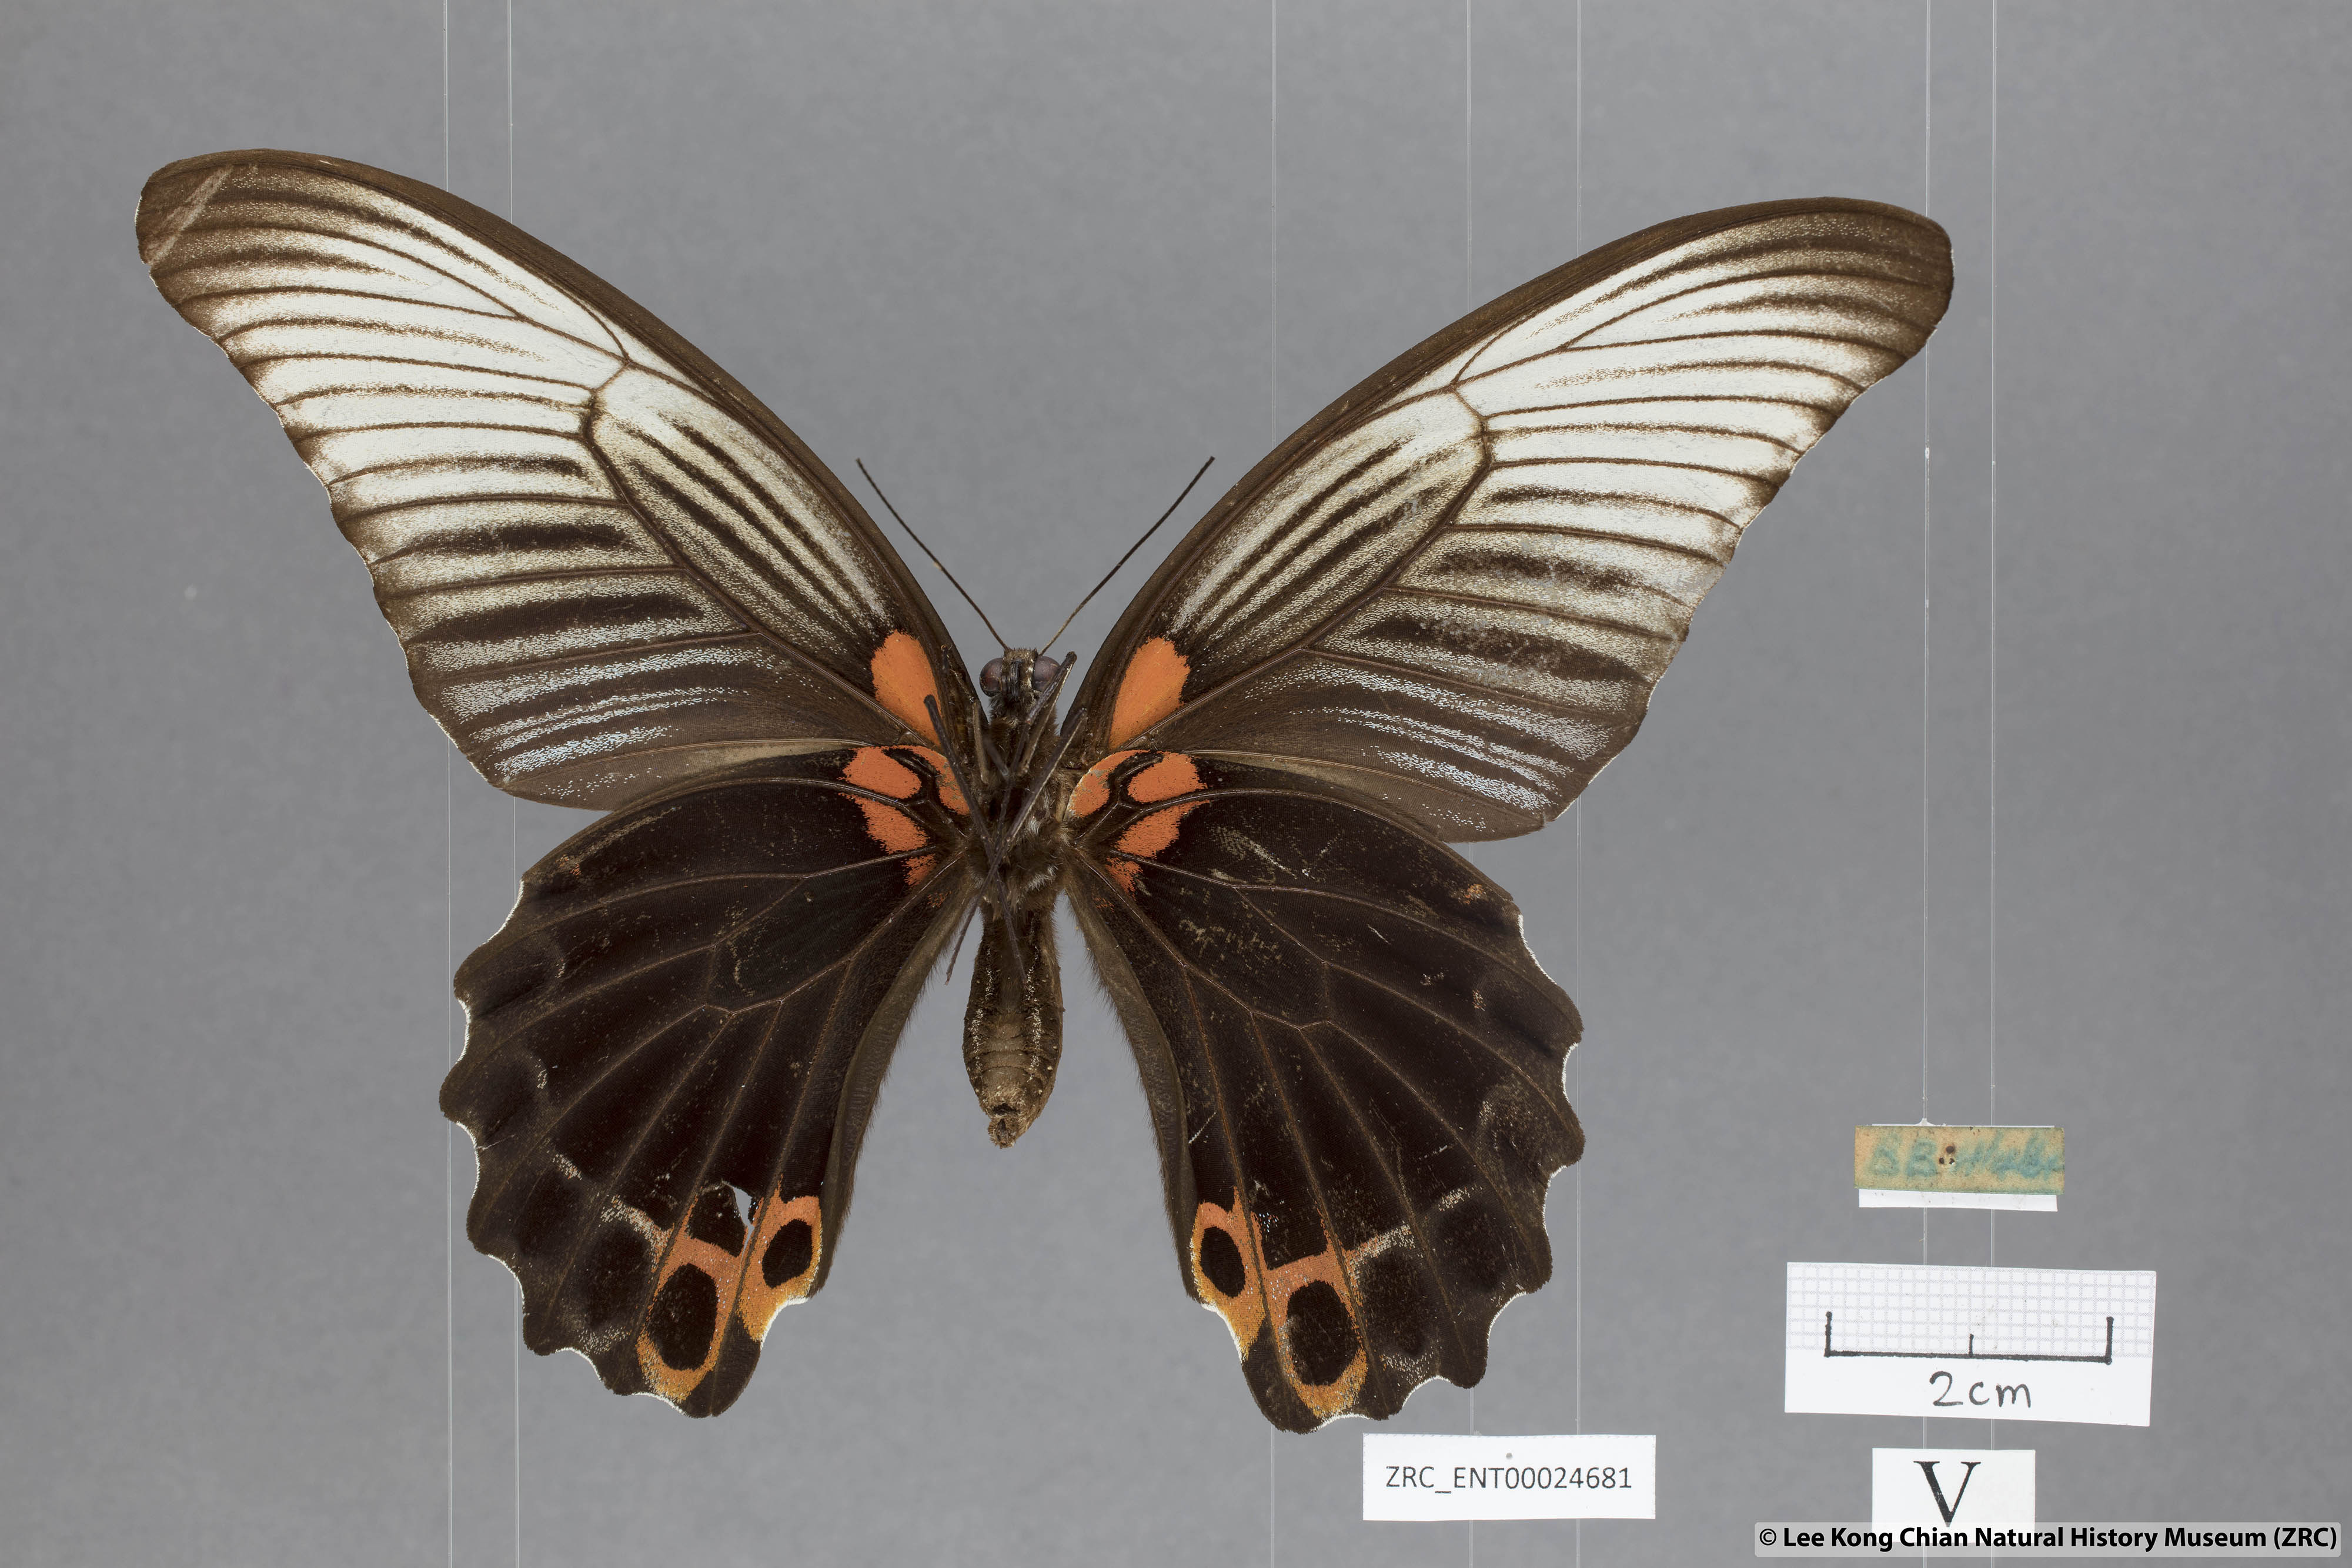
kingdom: Animalia
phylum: Arthropoda
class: Insecta
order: Lepidoptera
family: Papilionidae
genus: Papilio
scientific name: Papilio memnon
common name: Great mormon
